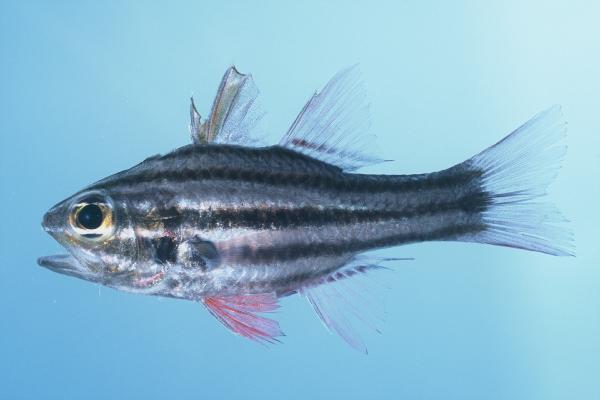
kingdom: Animalia
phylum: Chordata
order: Perciformes
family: Apogonidae
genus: Ostorhinchus
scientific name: Ostorhinchus taeniophorus
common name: Reef-flat cardinalfish
